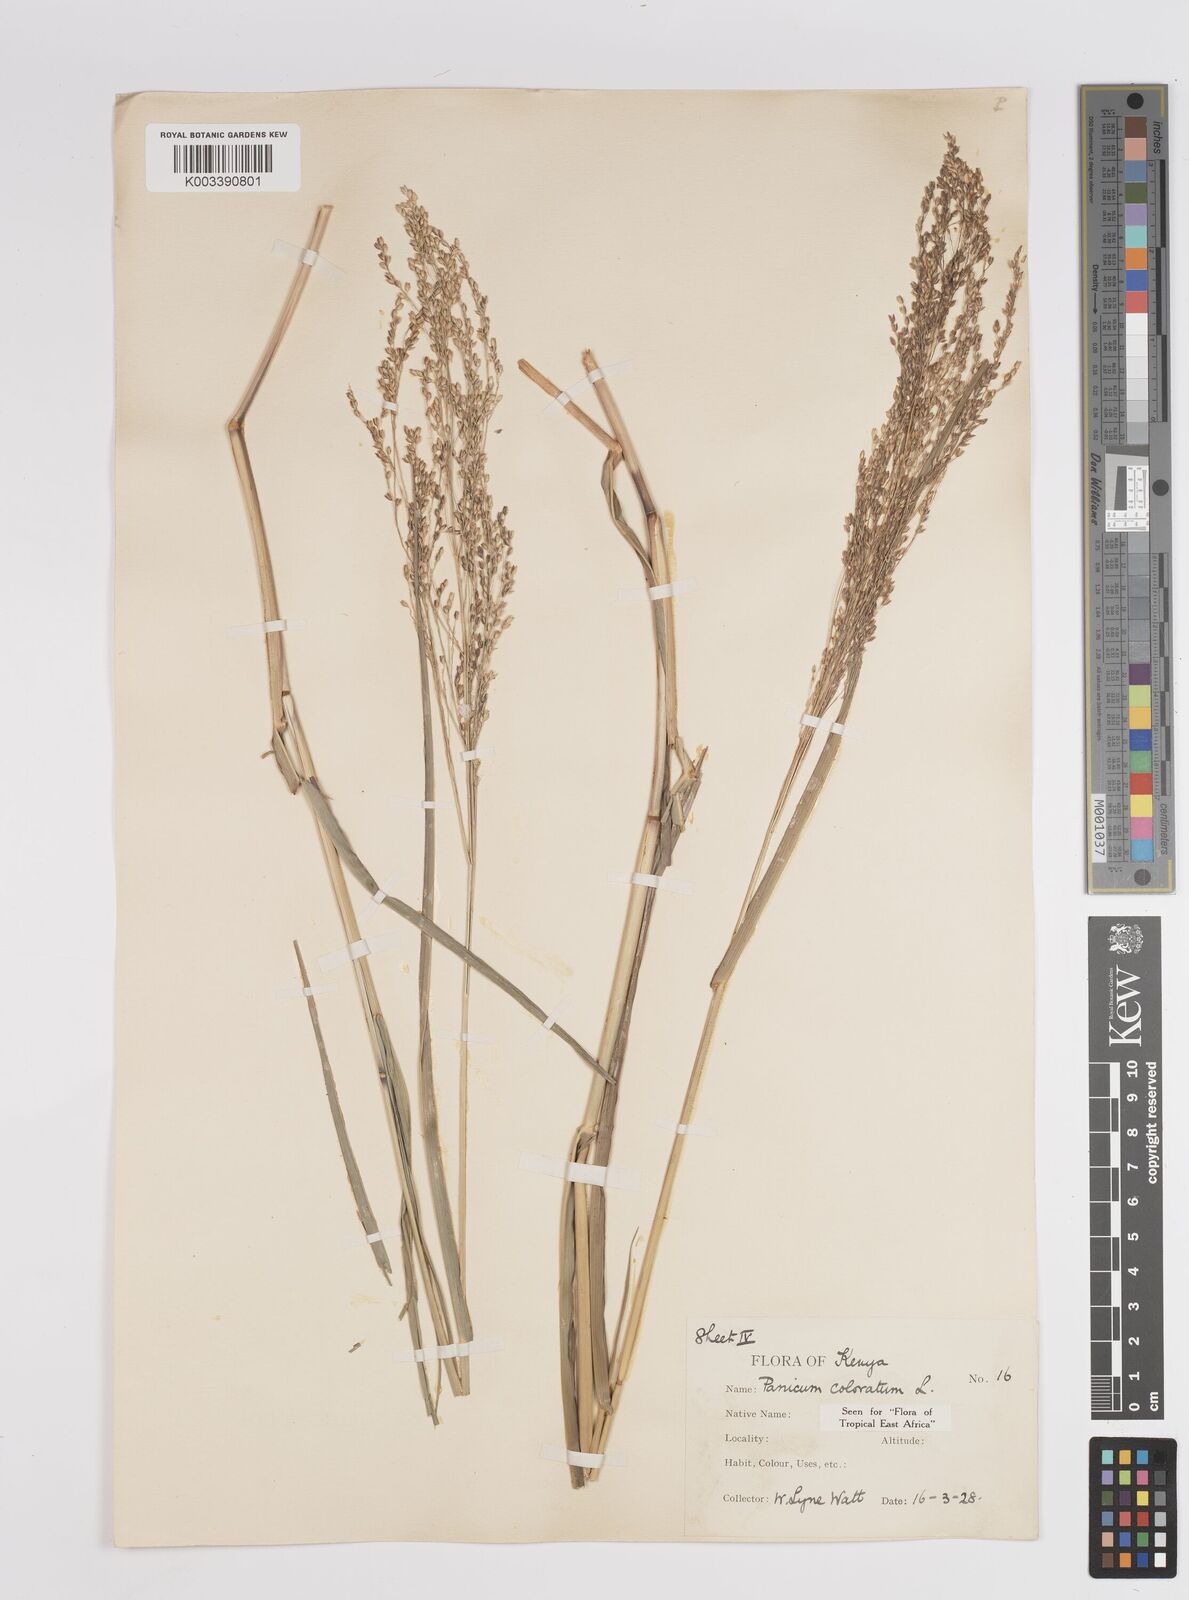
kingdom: Plantae
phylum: Tracheophyta
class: Liliopsida
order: Poales
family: Poaceae
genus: Panicum
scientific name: Panicum coloratum
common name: Kleingrass
